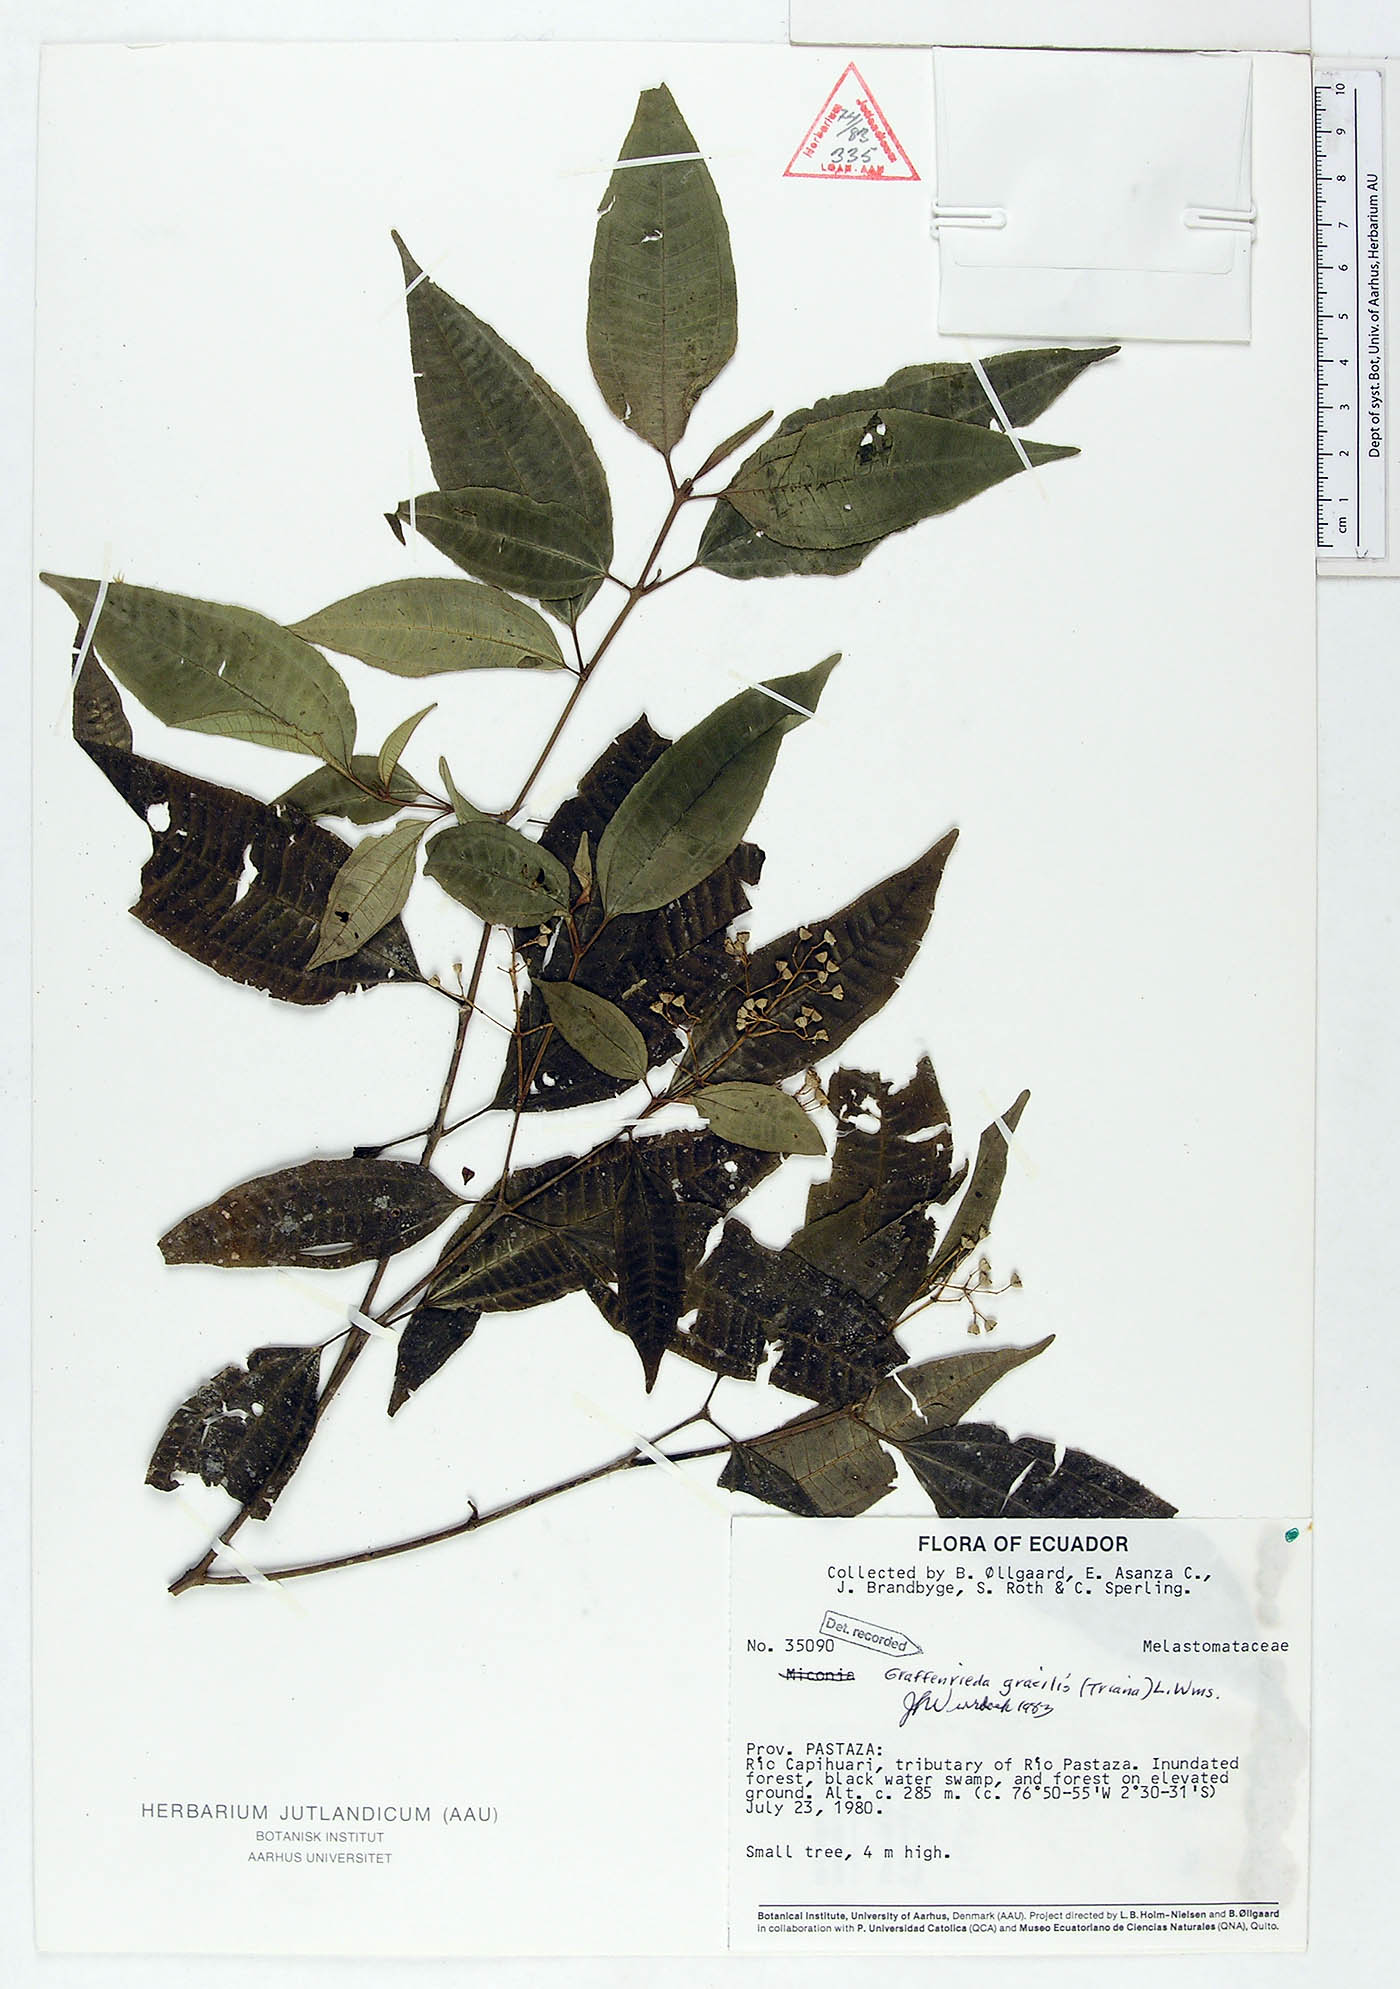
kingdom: Plantae
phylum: Tracheophyta
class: Magnoliopsida
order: Myrtales
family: Melastomataceae
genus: Graffenrieda
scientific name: Graffenrieda gracilis
